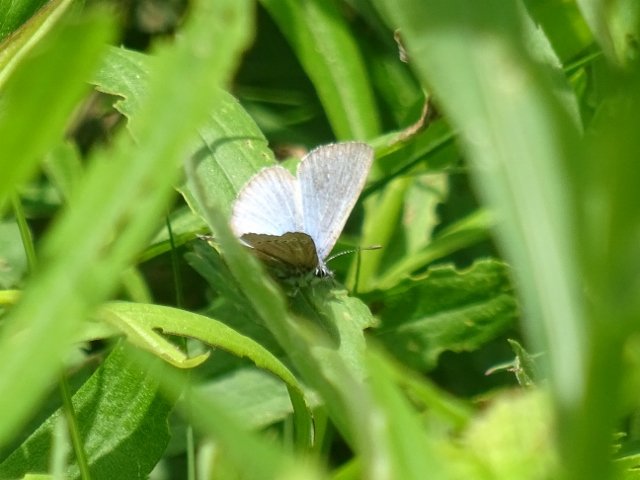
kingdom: Animalia
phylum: Arthropoda
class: Insecta
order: Lepidoptera
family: Lycaenidae
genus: Glaucopsyche
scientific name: Glaucopsyche lygdamus
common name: Silvery Blue
